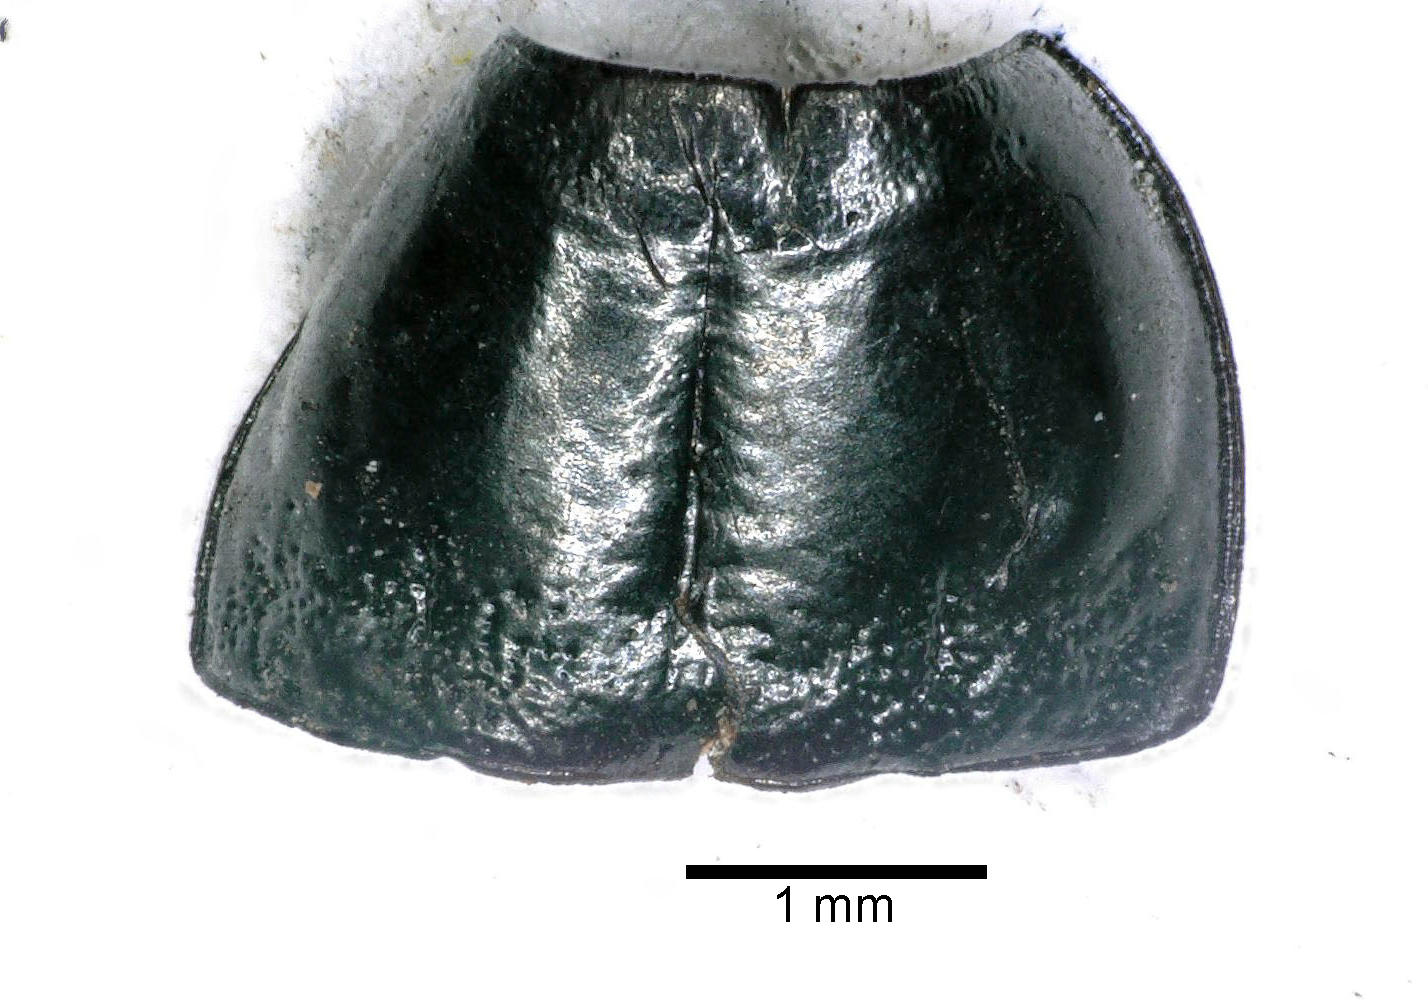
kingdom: Animalia
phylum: Arthropoda
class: Insecta
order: Coleoptera
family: Carabidae
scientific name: Carabidae
